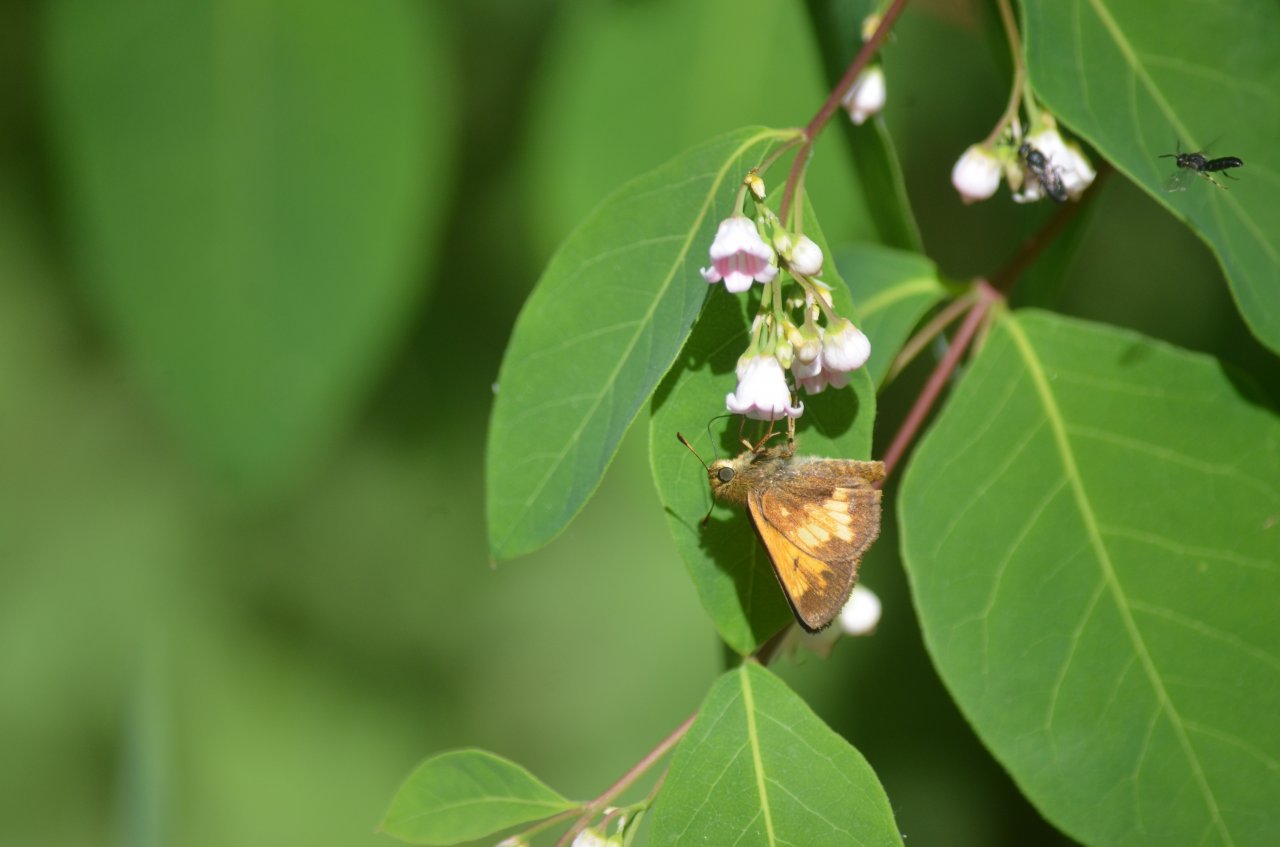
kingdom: Animalia
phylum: Arthropoda
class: Insecta
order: Lepidoptera
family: Hesperiidae
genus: Lon
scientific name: Lon hobomok
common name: Hobomok Skipper
